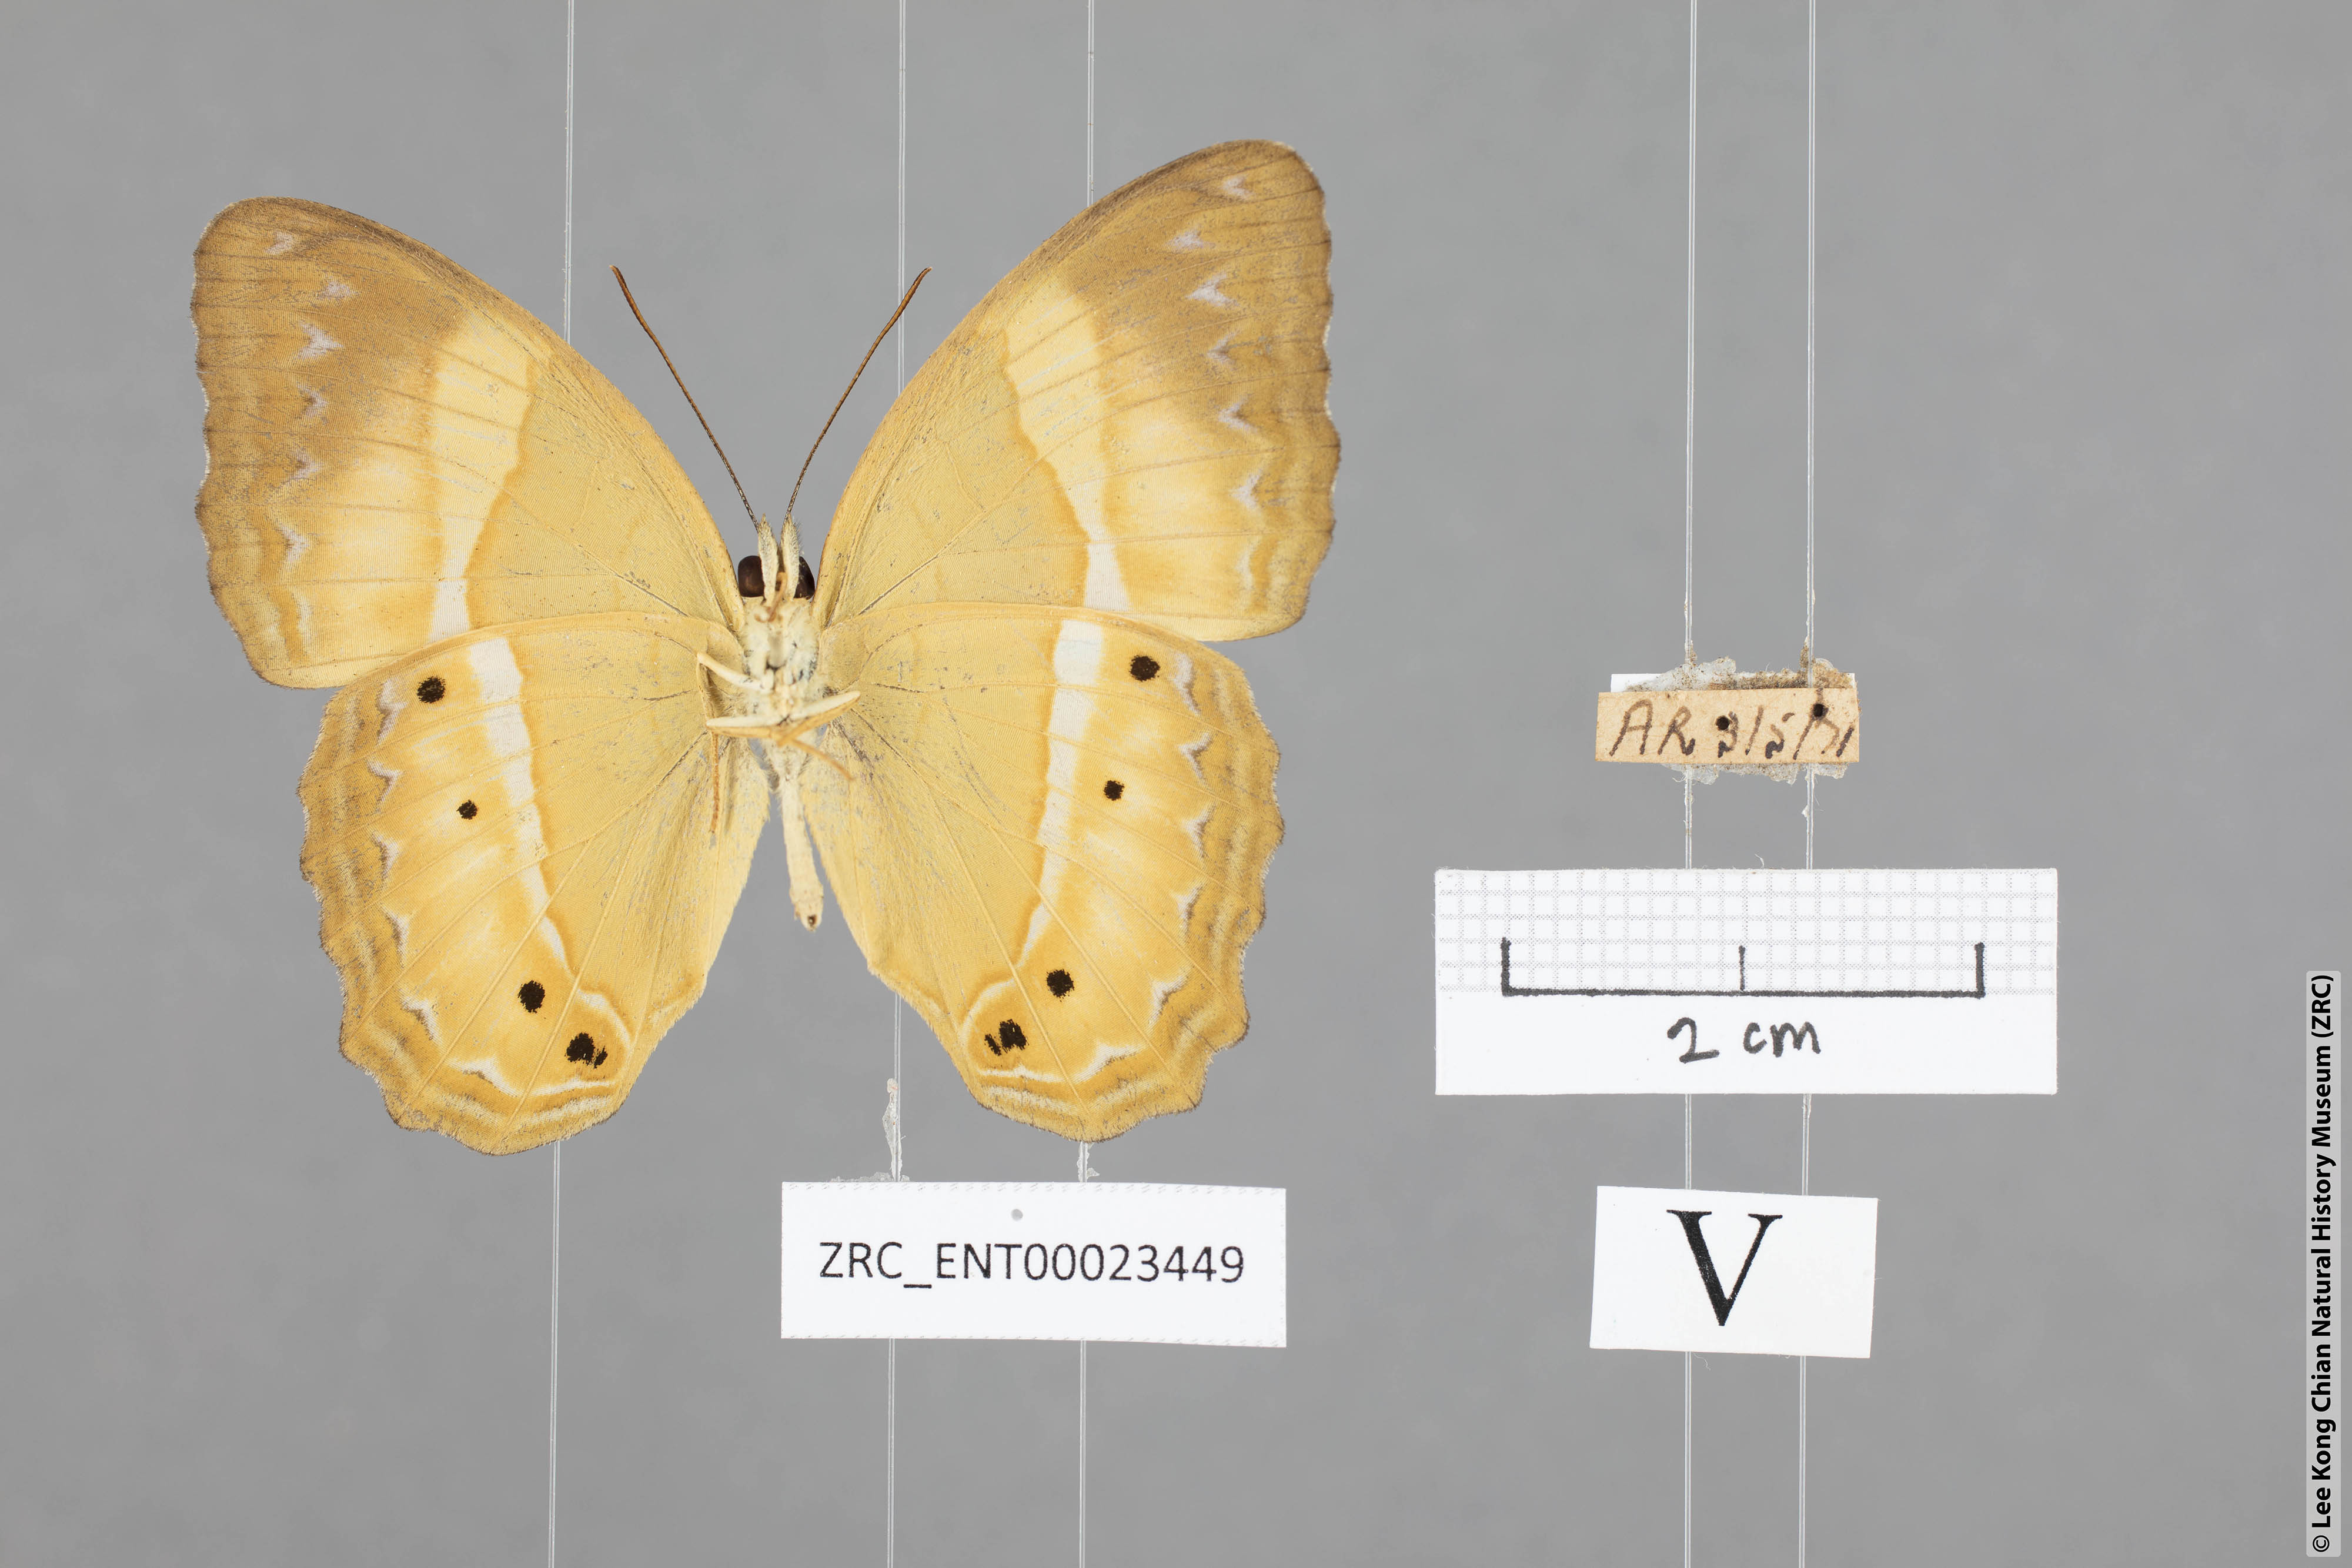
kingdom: Animalia
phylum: Arthropoda
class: Insecta
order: Lepidoptera
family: Nymphalidae
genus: Cirrochroa
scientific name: Cirrochroa satellita
